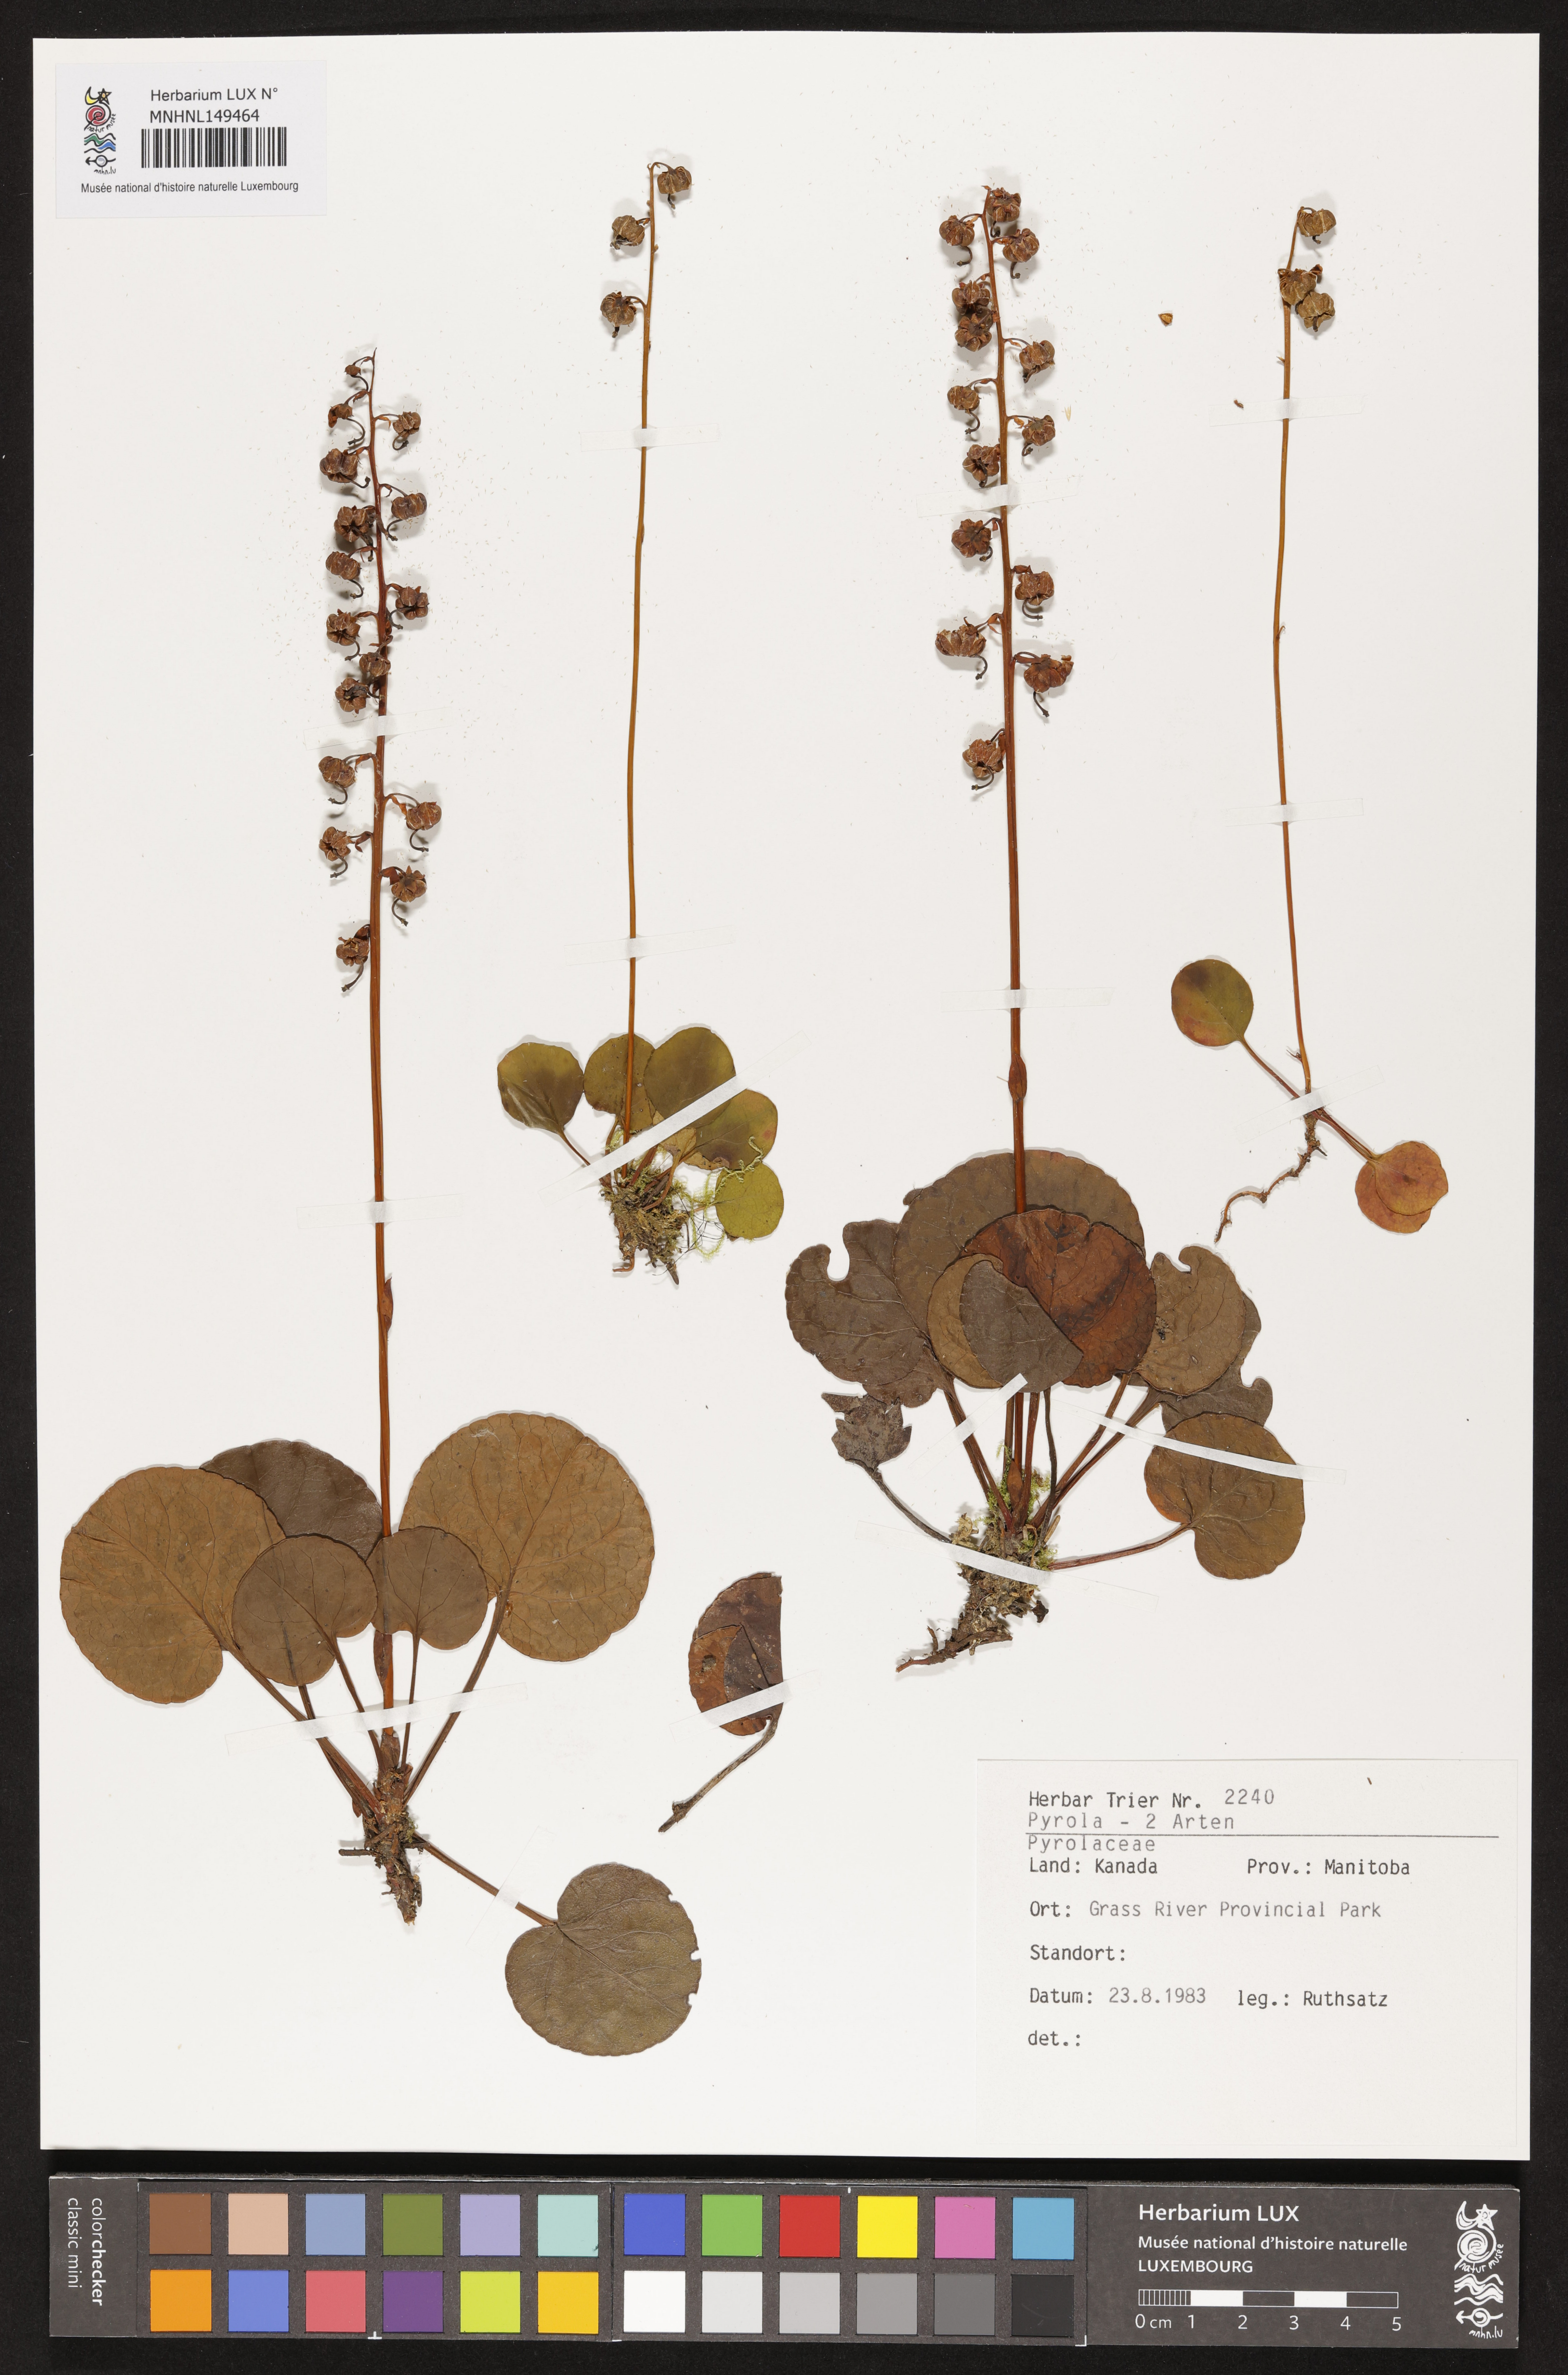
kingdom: Plantae
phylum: Tracheophyta
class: Magnoliopsida
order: Ericales
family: Ericaceae
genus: Pyrola
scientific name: Pyrola
